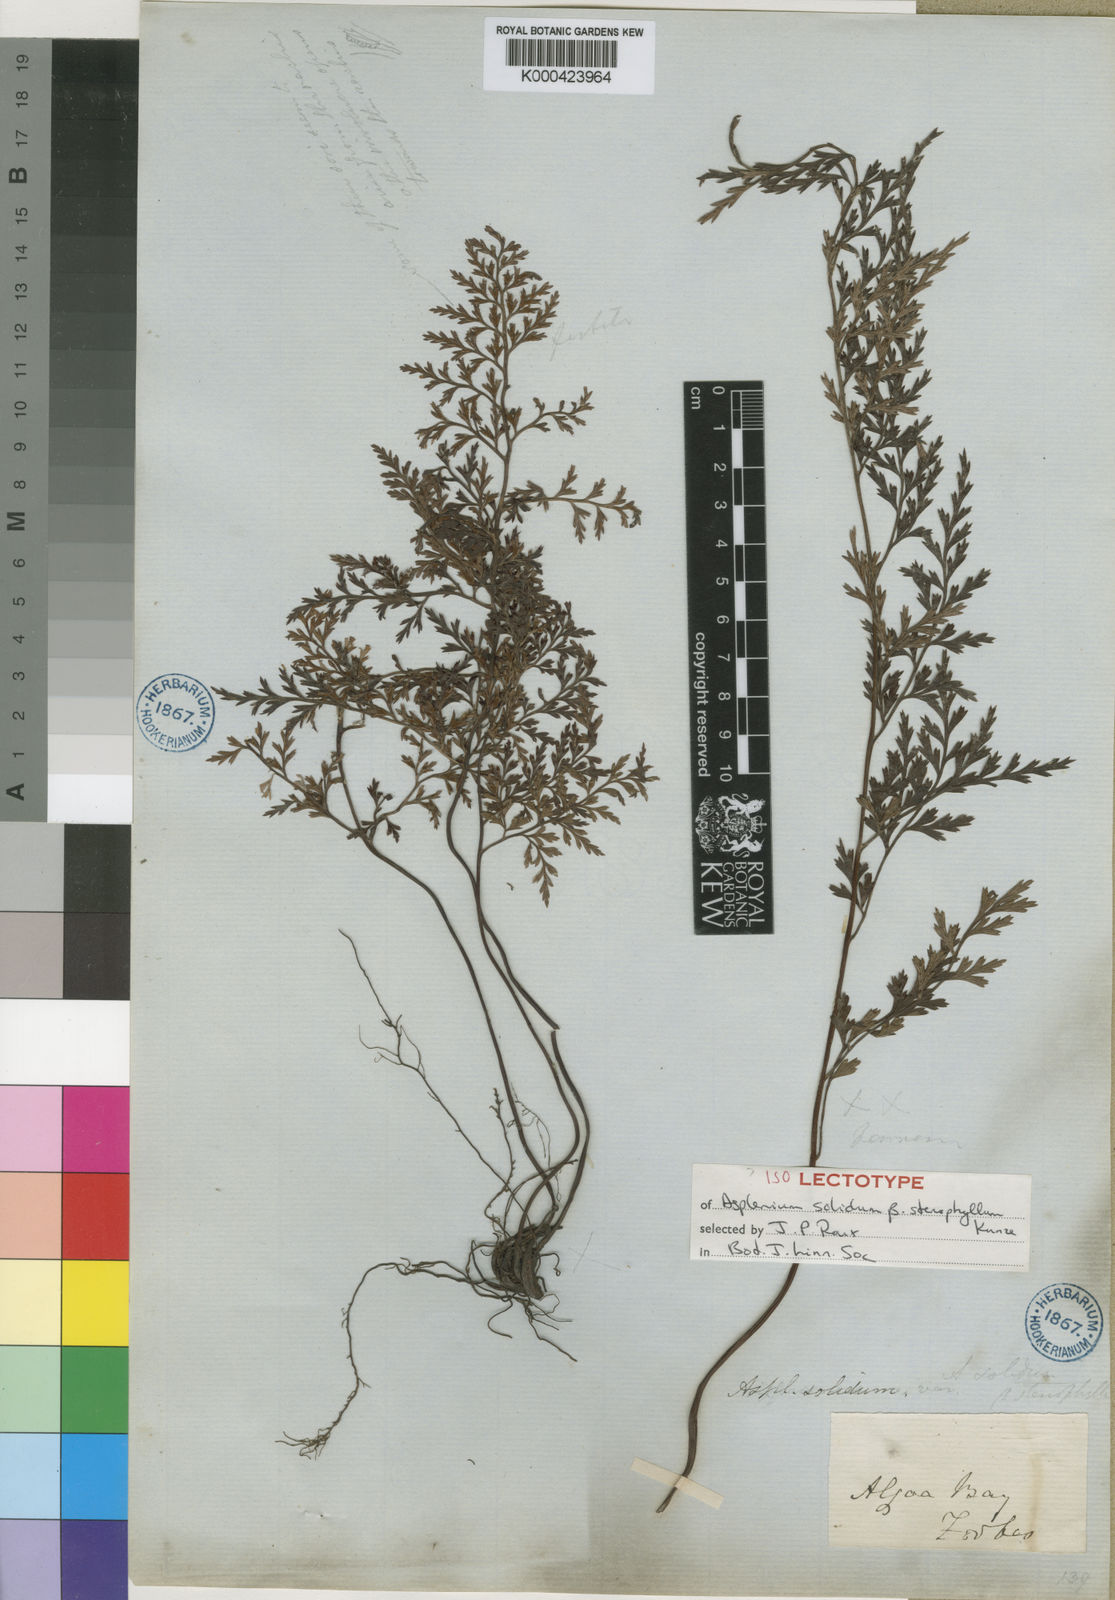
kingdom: Plantae
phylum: Tracheophyta
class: Polypodiopsida
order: Polypodiales
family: Aspleniaceae
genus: Asplenium
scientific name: Asplenium adiantum-nigrum
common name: Black spleenwort
